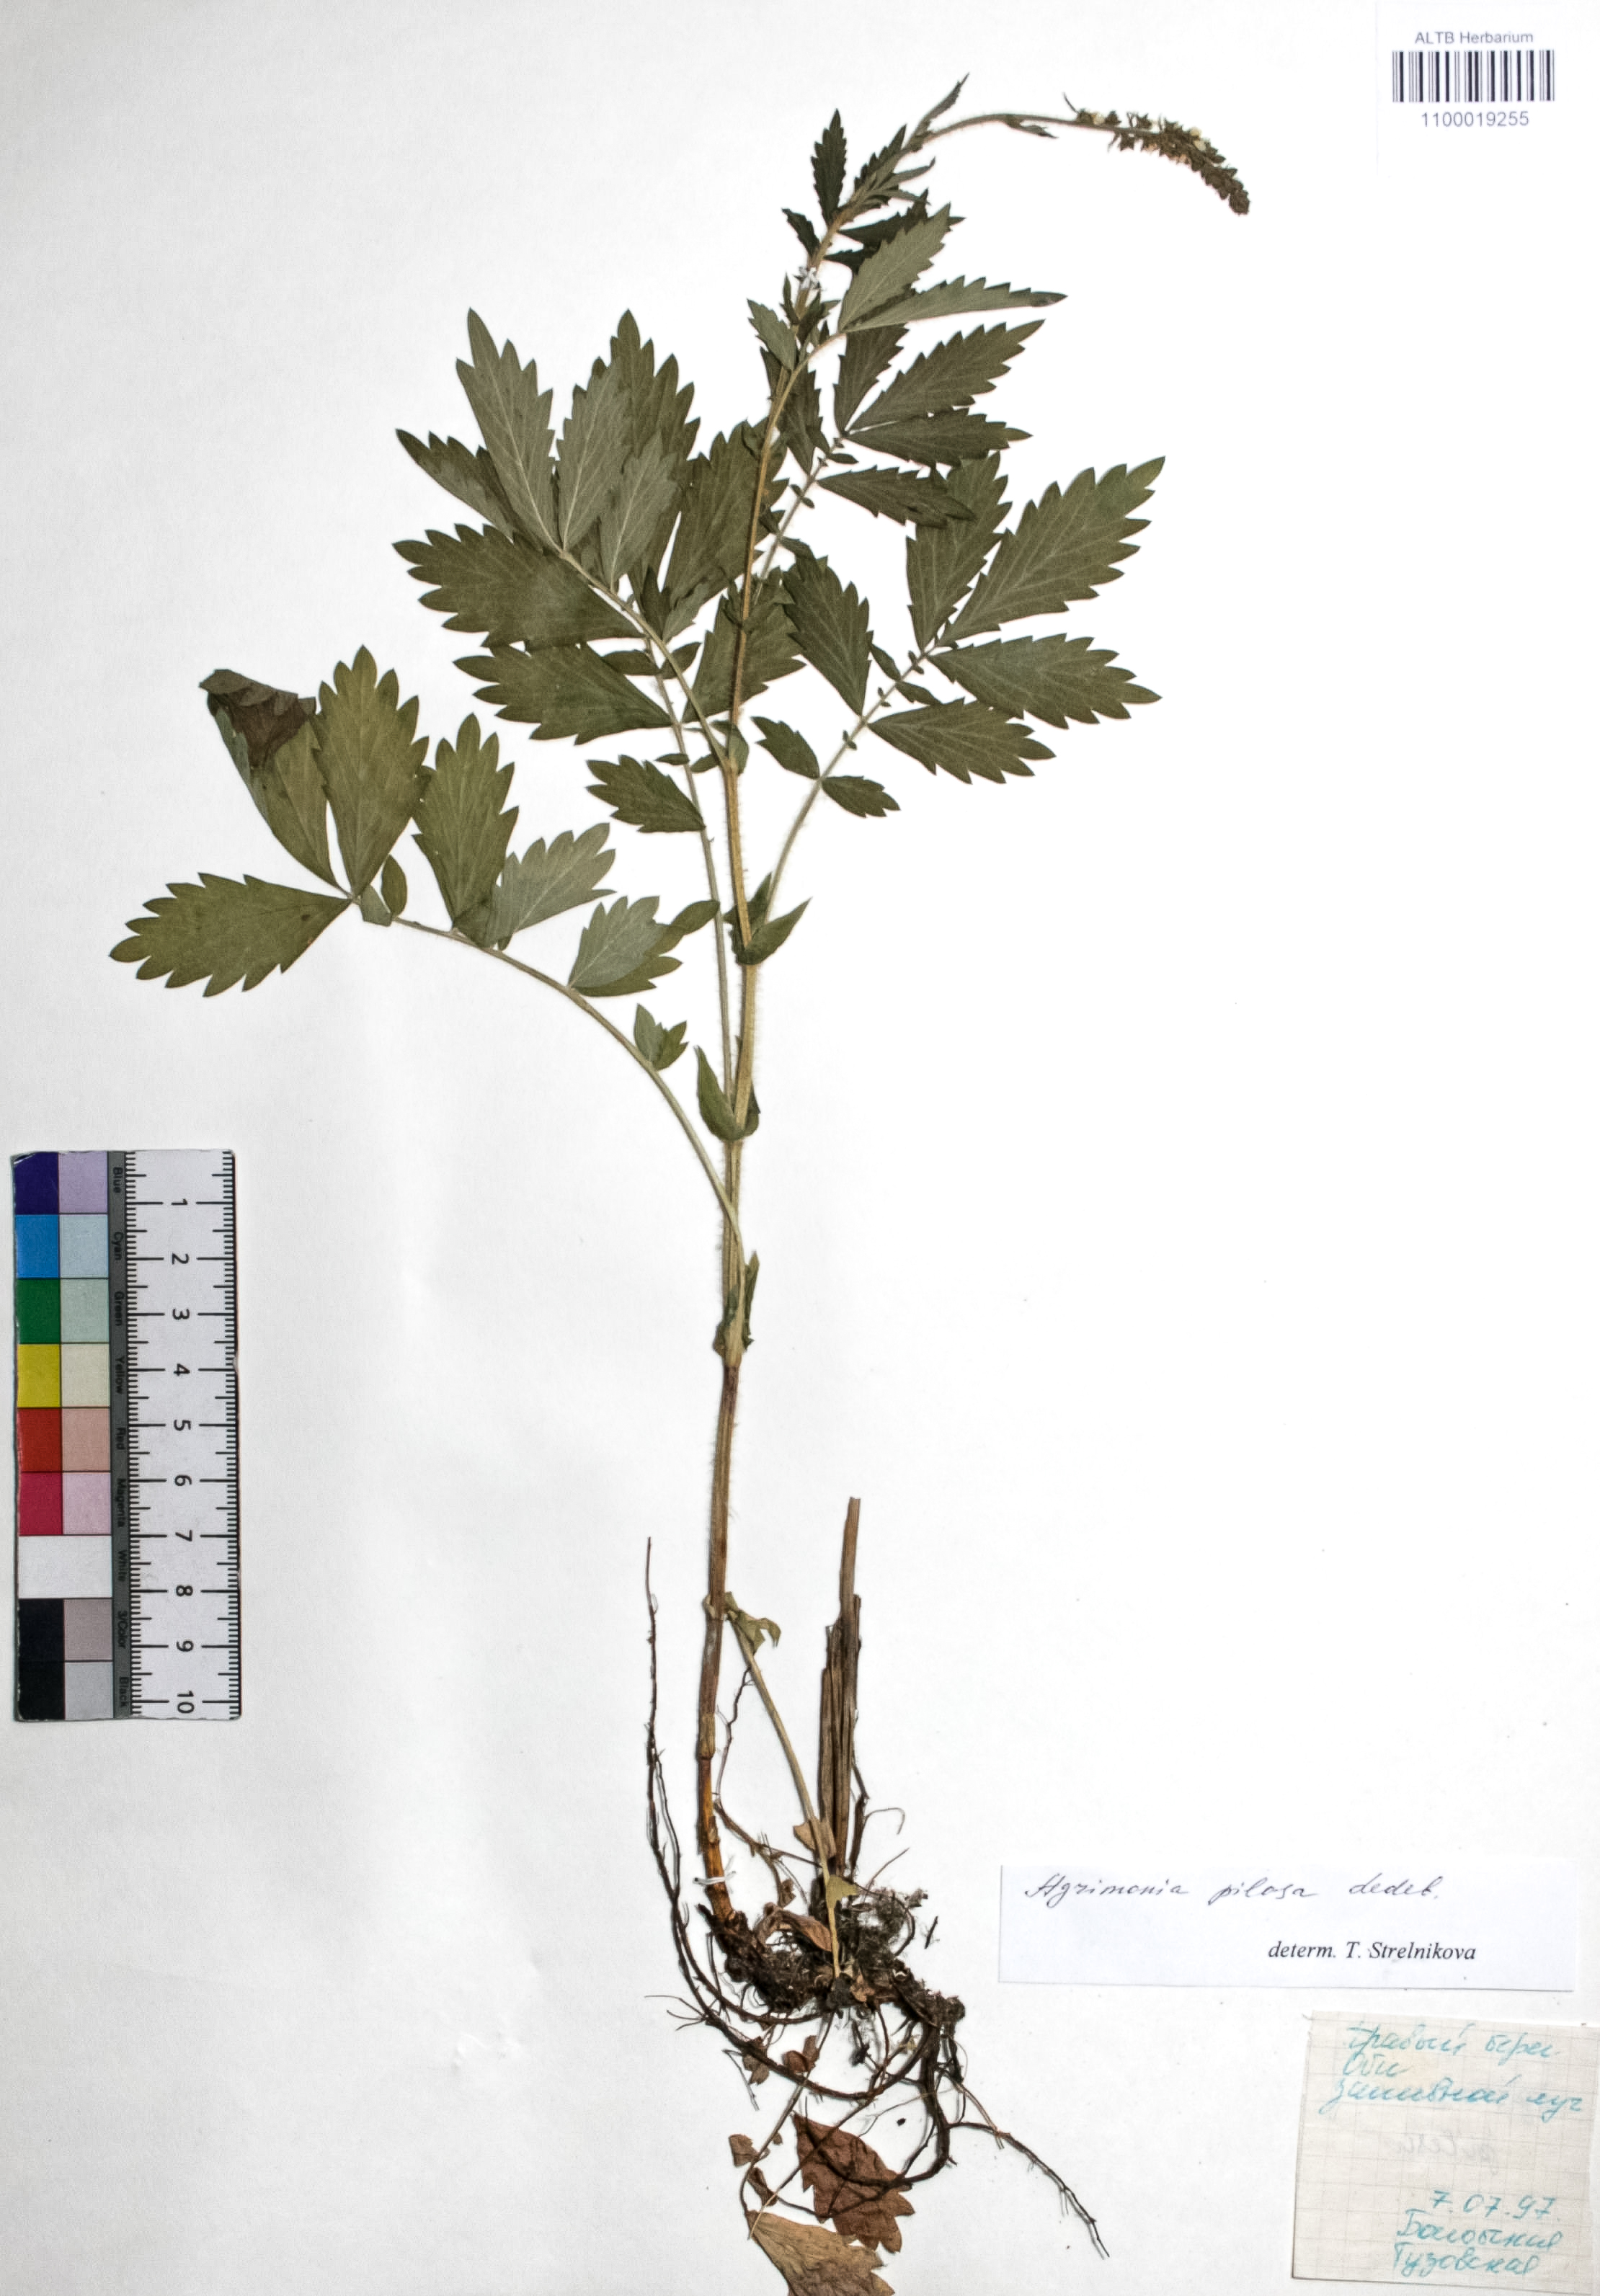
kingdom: Plantae
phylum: Tracheophyta
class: Magnoliopsida
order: Rosales
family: Rosaceae
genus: Agrimonia
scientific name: Agrimonia pilosa
